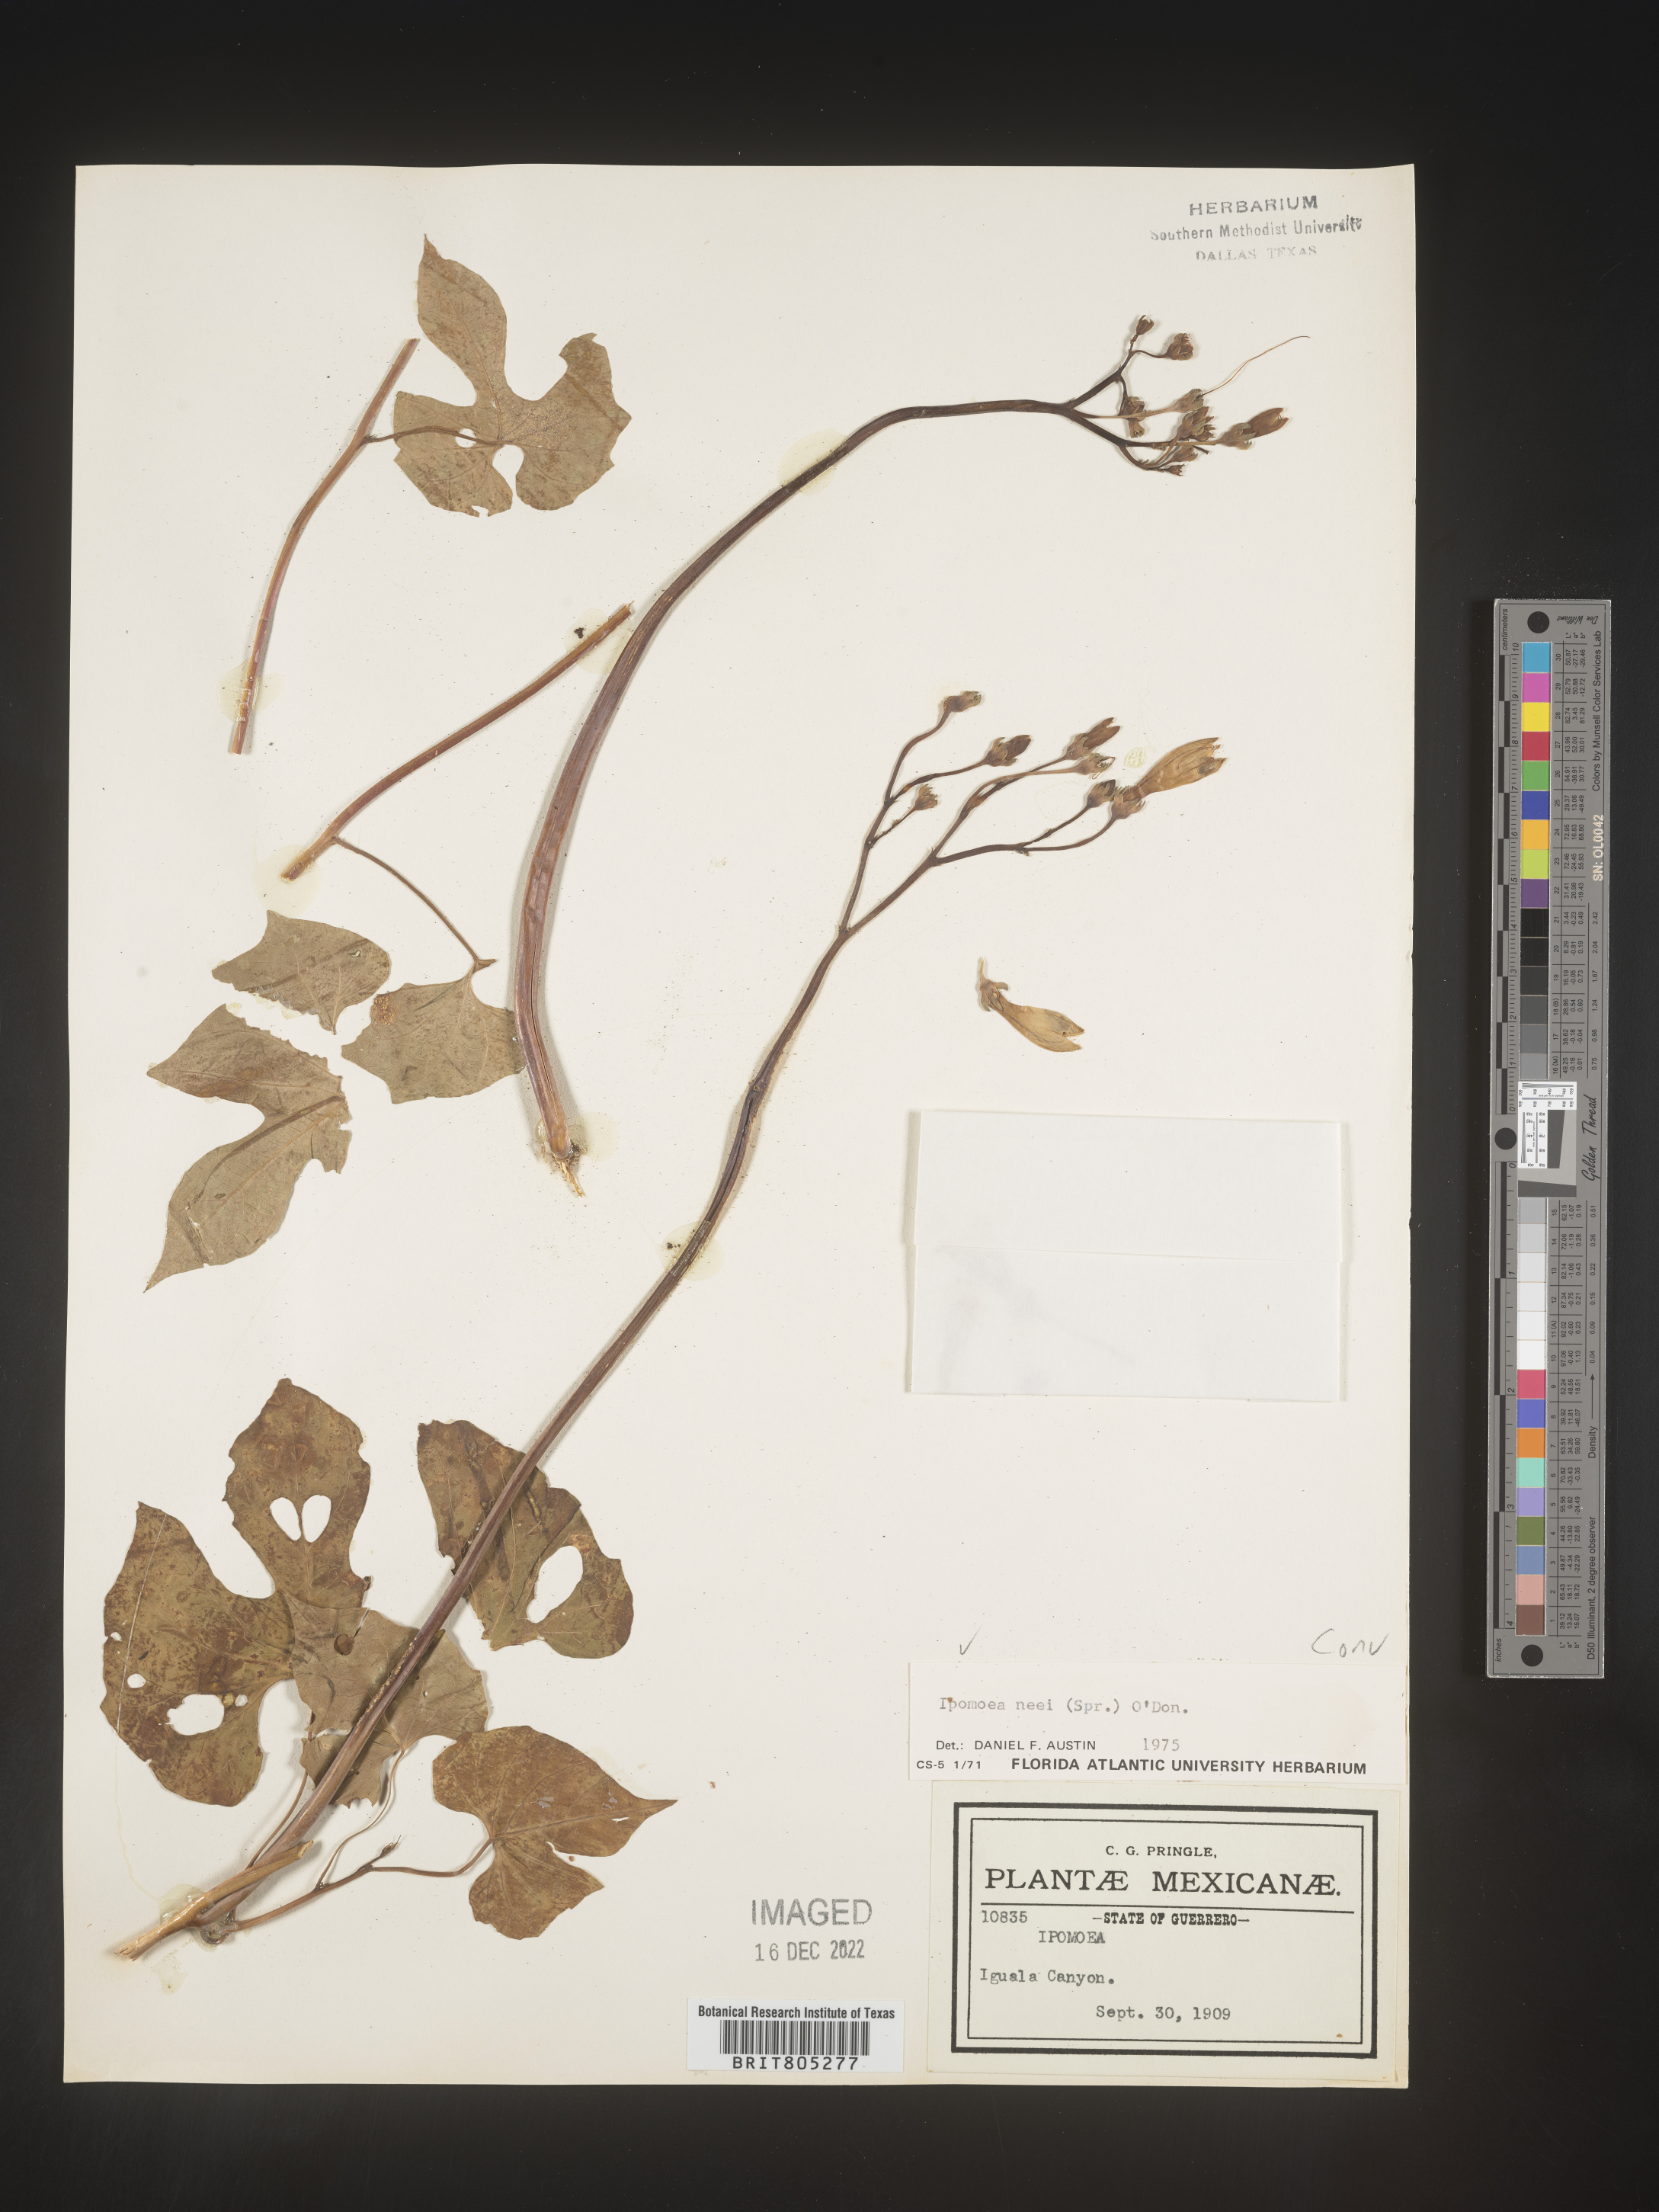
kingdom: Plantae
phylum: Tracheophyta
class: Magnoliopsida
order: Solanales
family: Convolvulaceae
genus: Ipomoea
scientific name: Ipomoea
